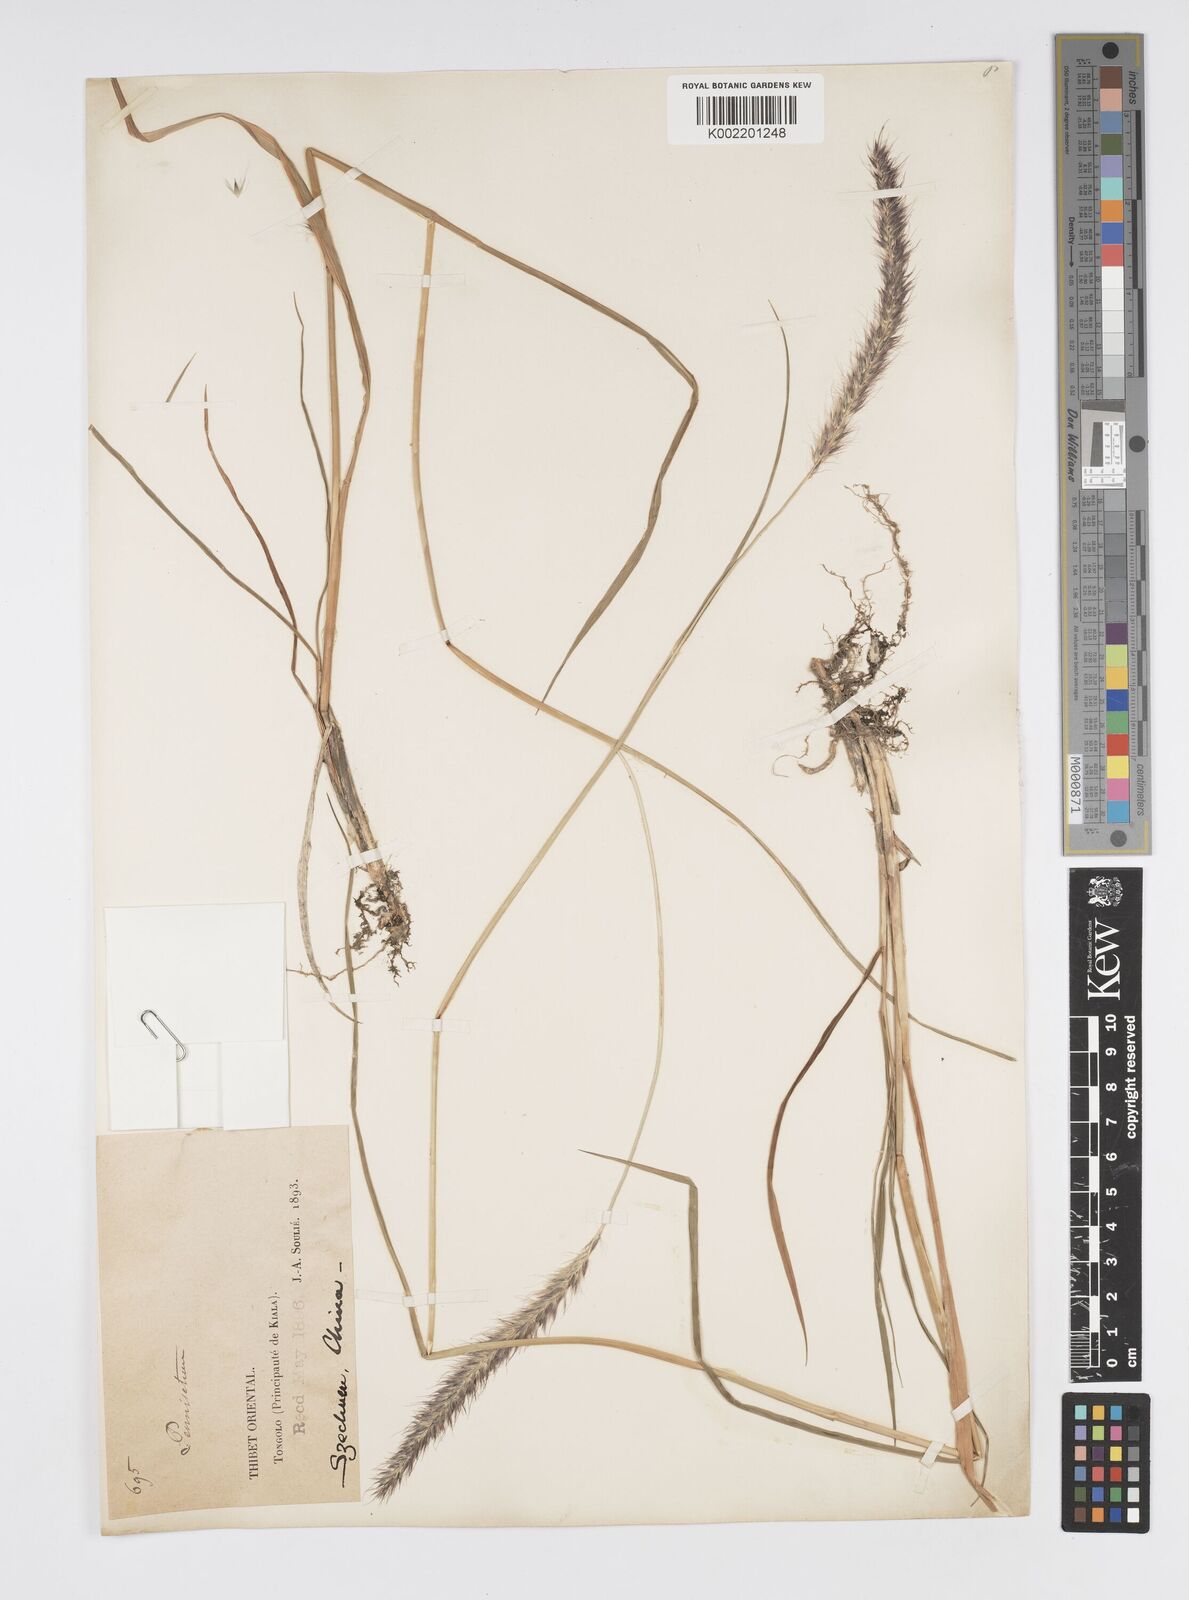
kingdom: Plantae
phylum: Tracheophyta
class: Liliopsida
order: Poales
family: Poaceae
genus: Cenchrus
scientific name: Cenchrus flaccidus
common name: Flaccid grass
